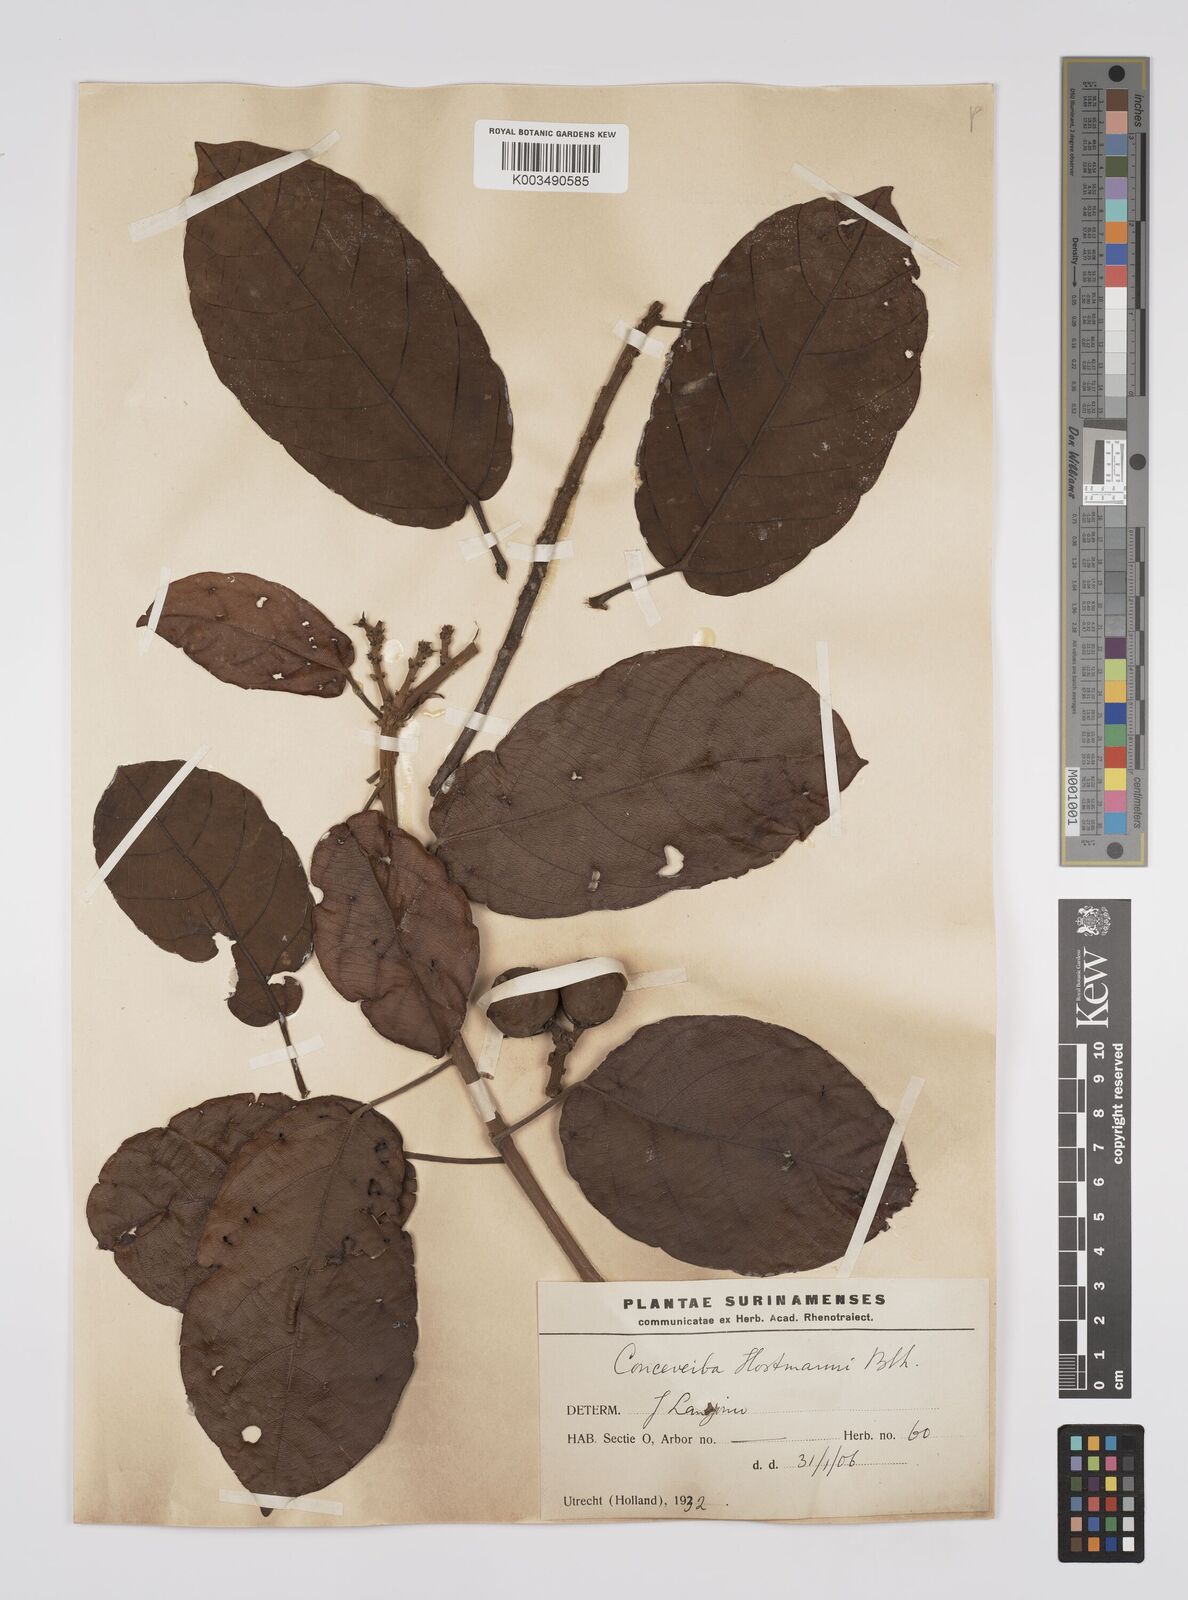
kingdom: Plantae
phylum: Tracheophyta
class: Magnoliopsida
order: Malpighiales
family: Euphorbiaceae
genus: Conceveiba
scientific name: Conceveiba hostmanii
